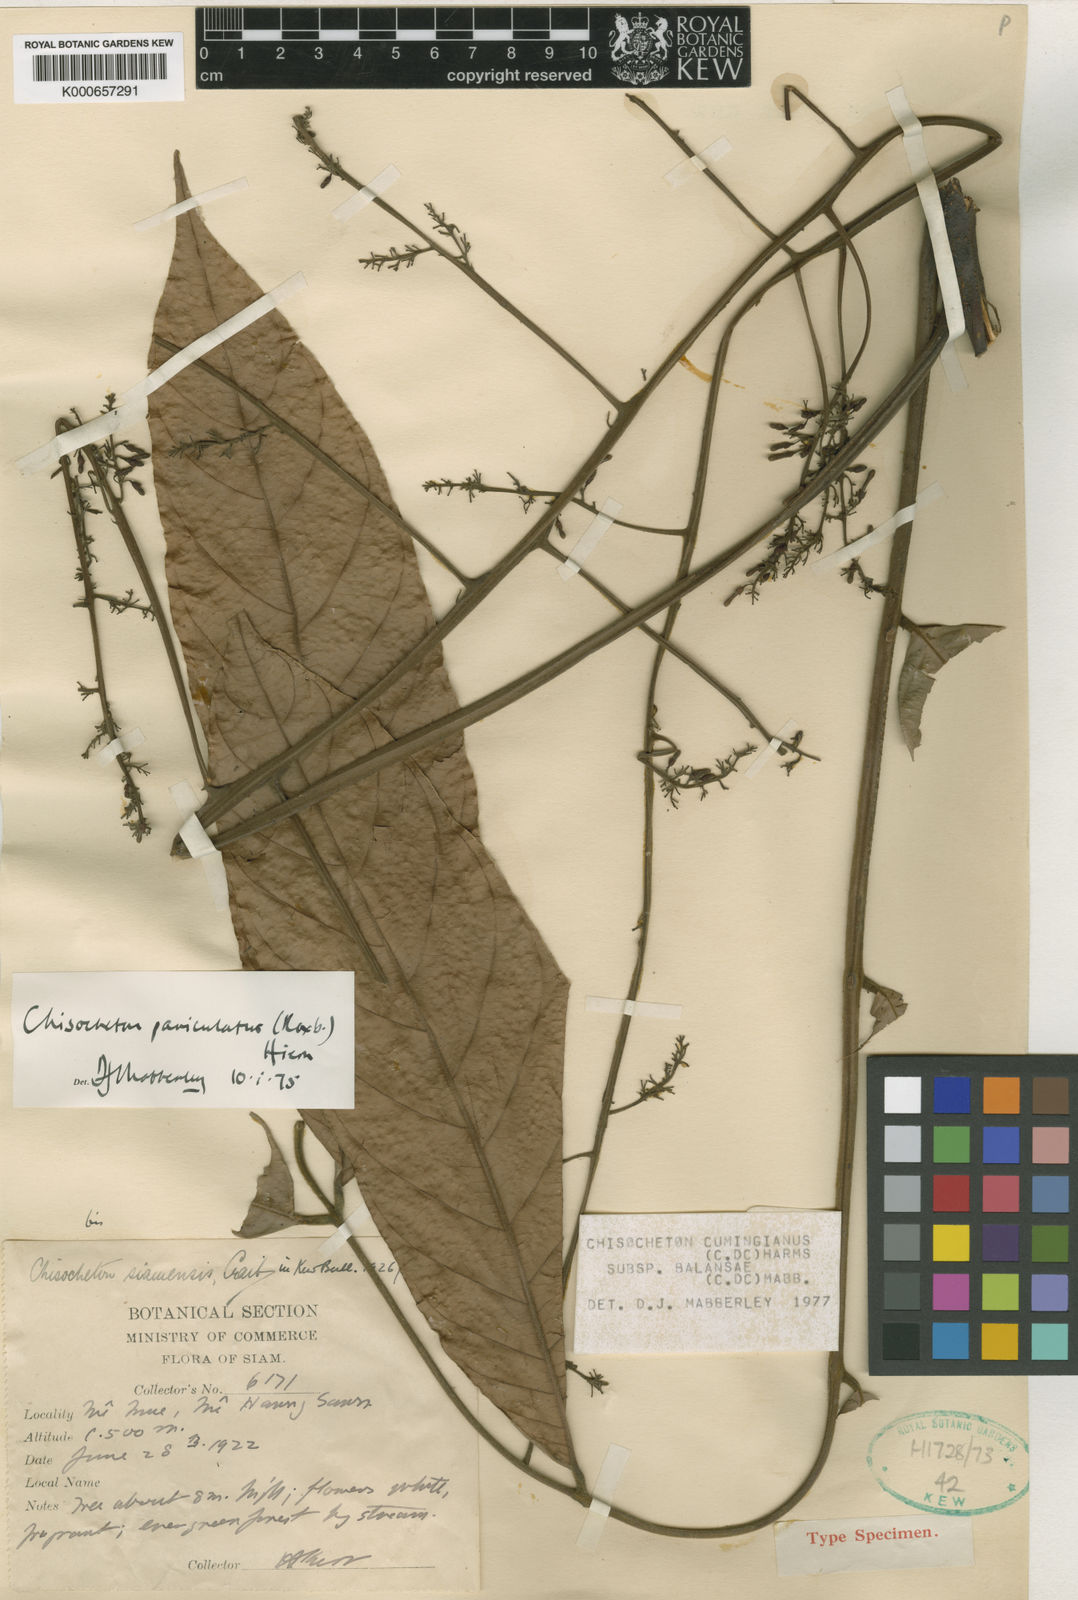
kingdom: Plantae
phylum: Tracheophyta
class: Magnoliopsida
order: Sapindales
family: Meliaceae
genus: Chisocheton
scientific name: Chisocheton cumingianus
